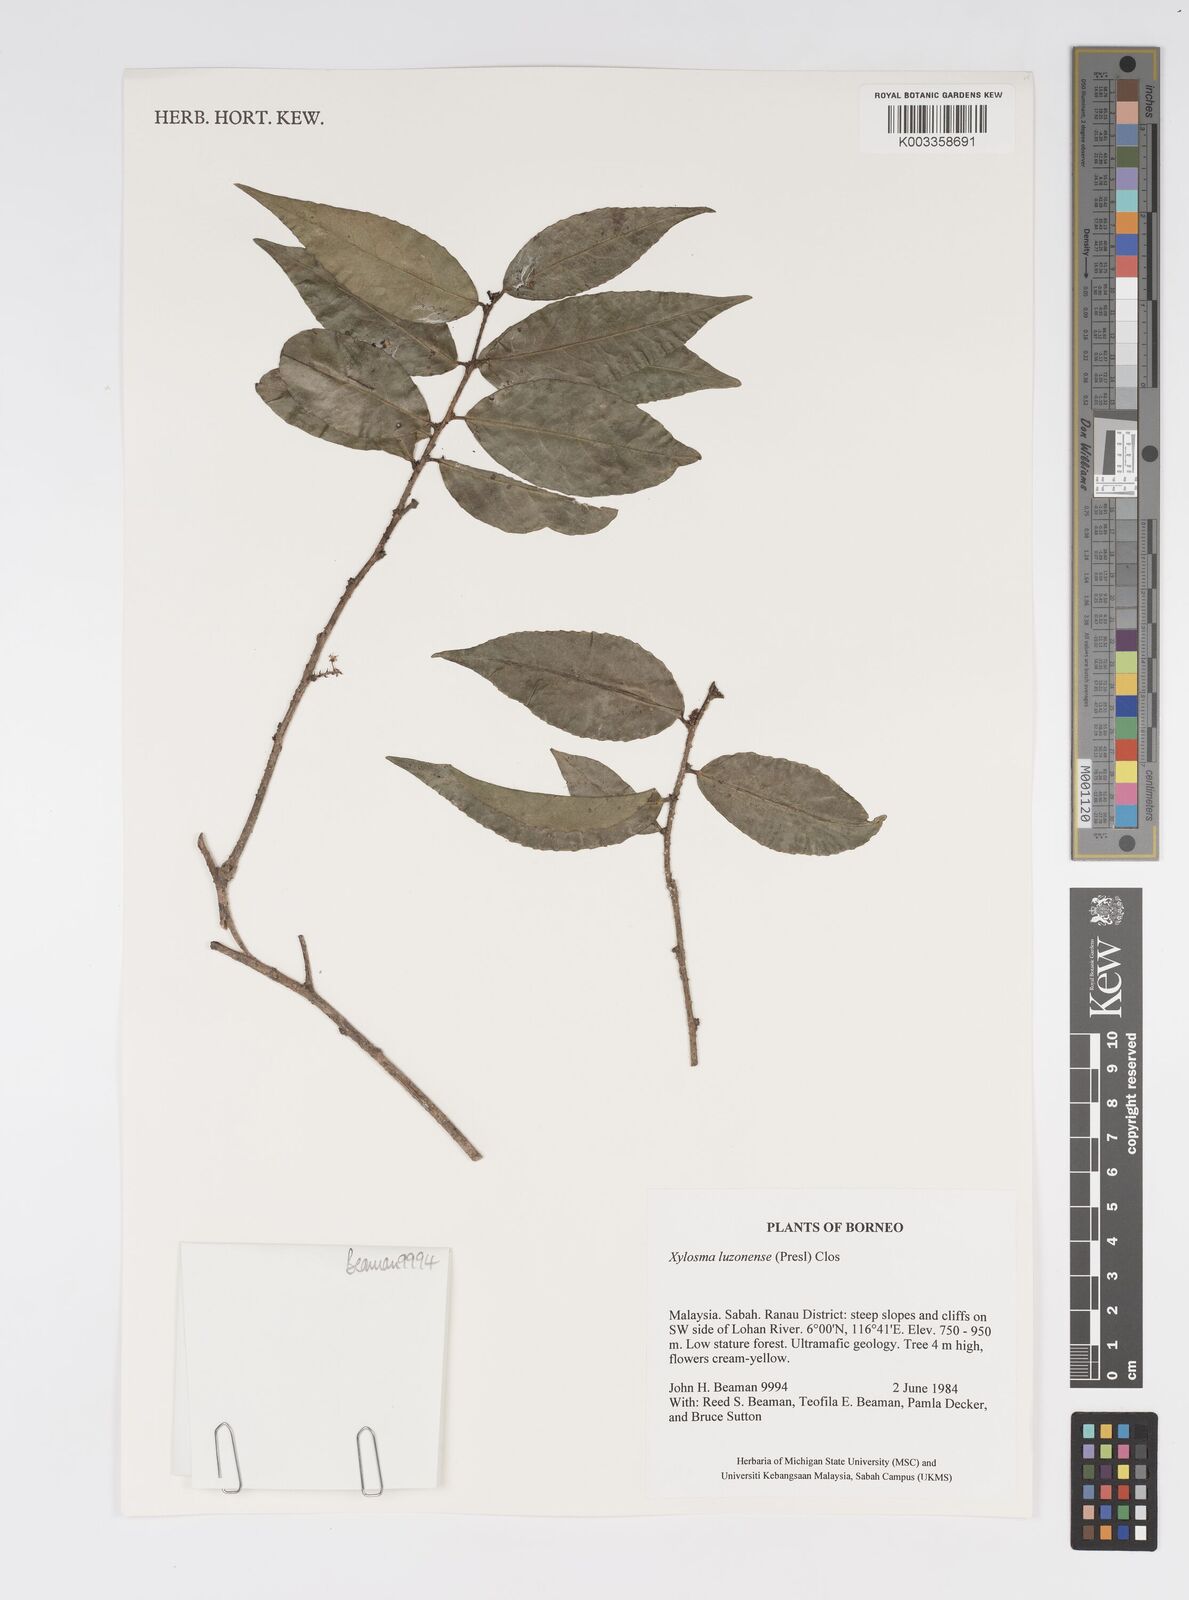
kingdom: Plantae
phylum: Tracheophyta
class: Magnoliopsida
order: Malpighiales
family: Salicaceae
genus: Xylosma
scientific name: Xylosma luzonensis
